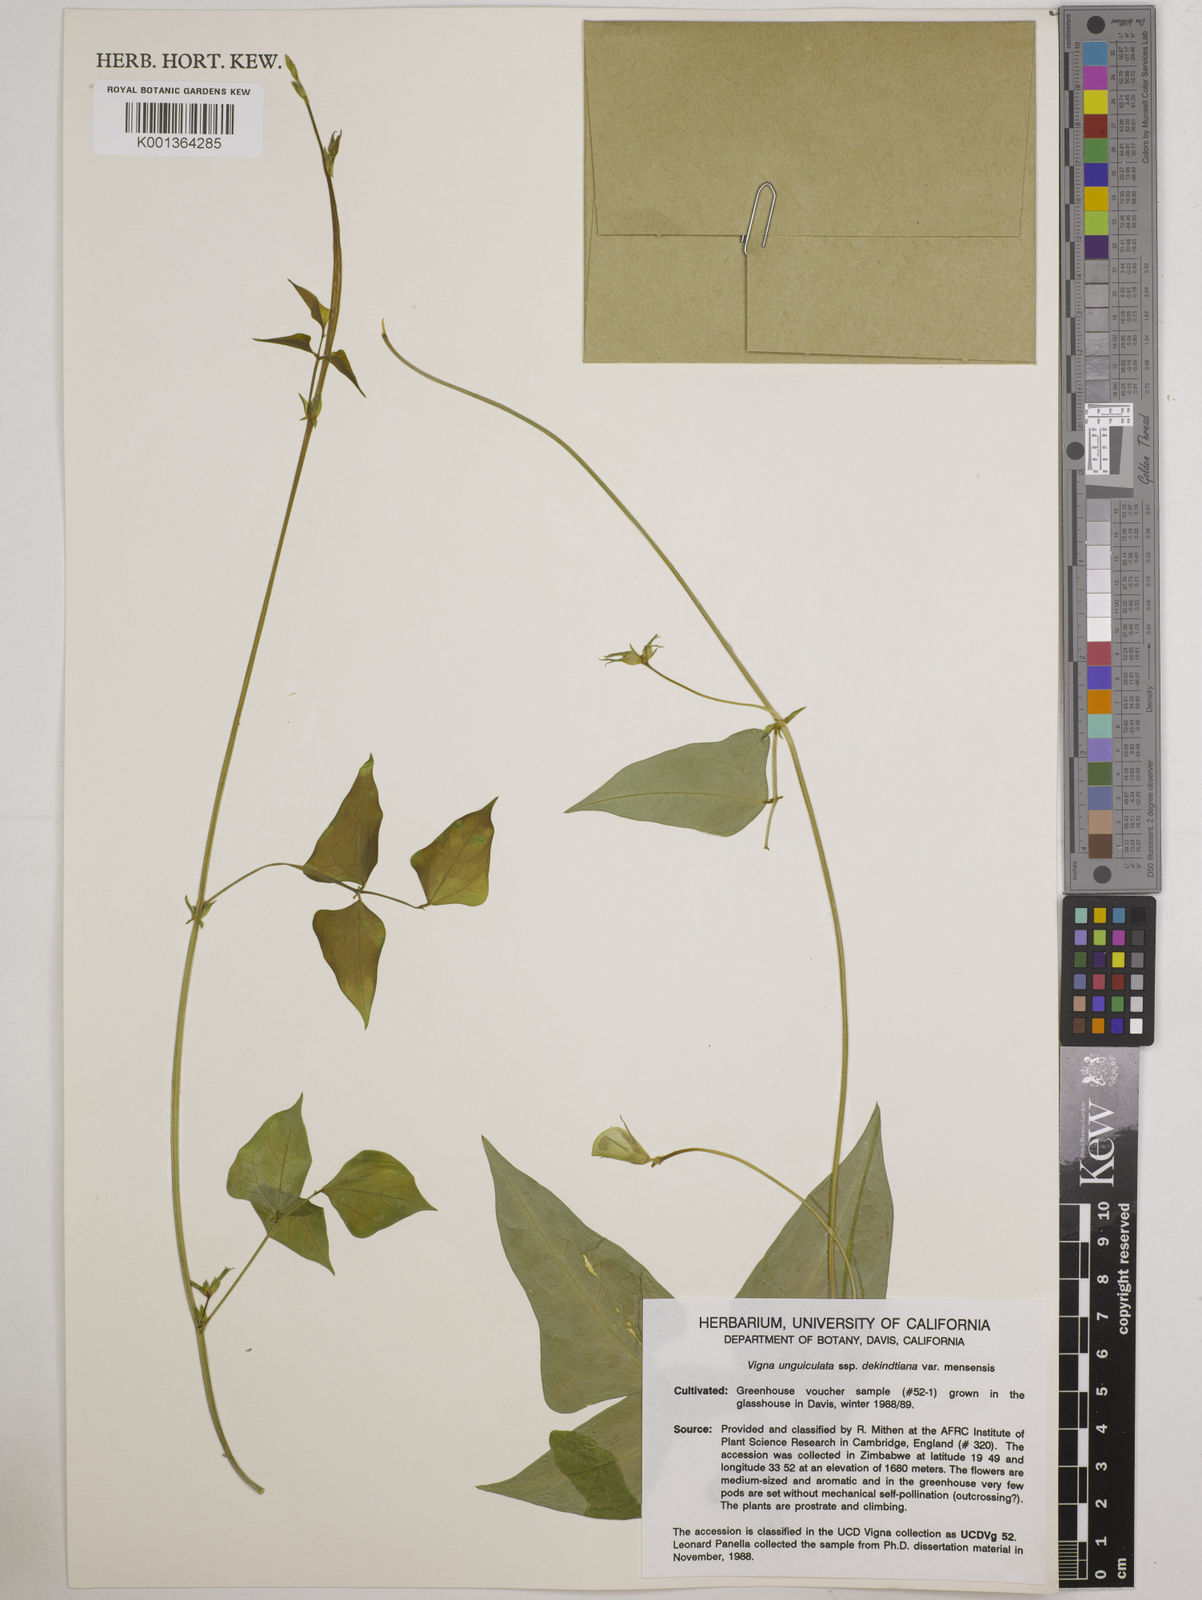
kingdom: Plantae
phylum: Tracheophyta
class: Magnoliopsida
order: Fabales
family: Fabaceae
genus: Vigna
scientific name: Vigna
